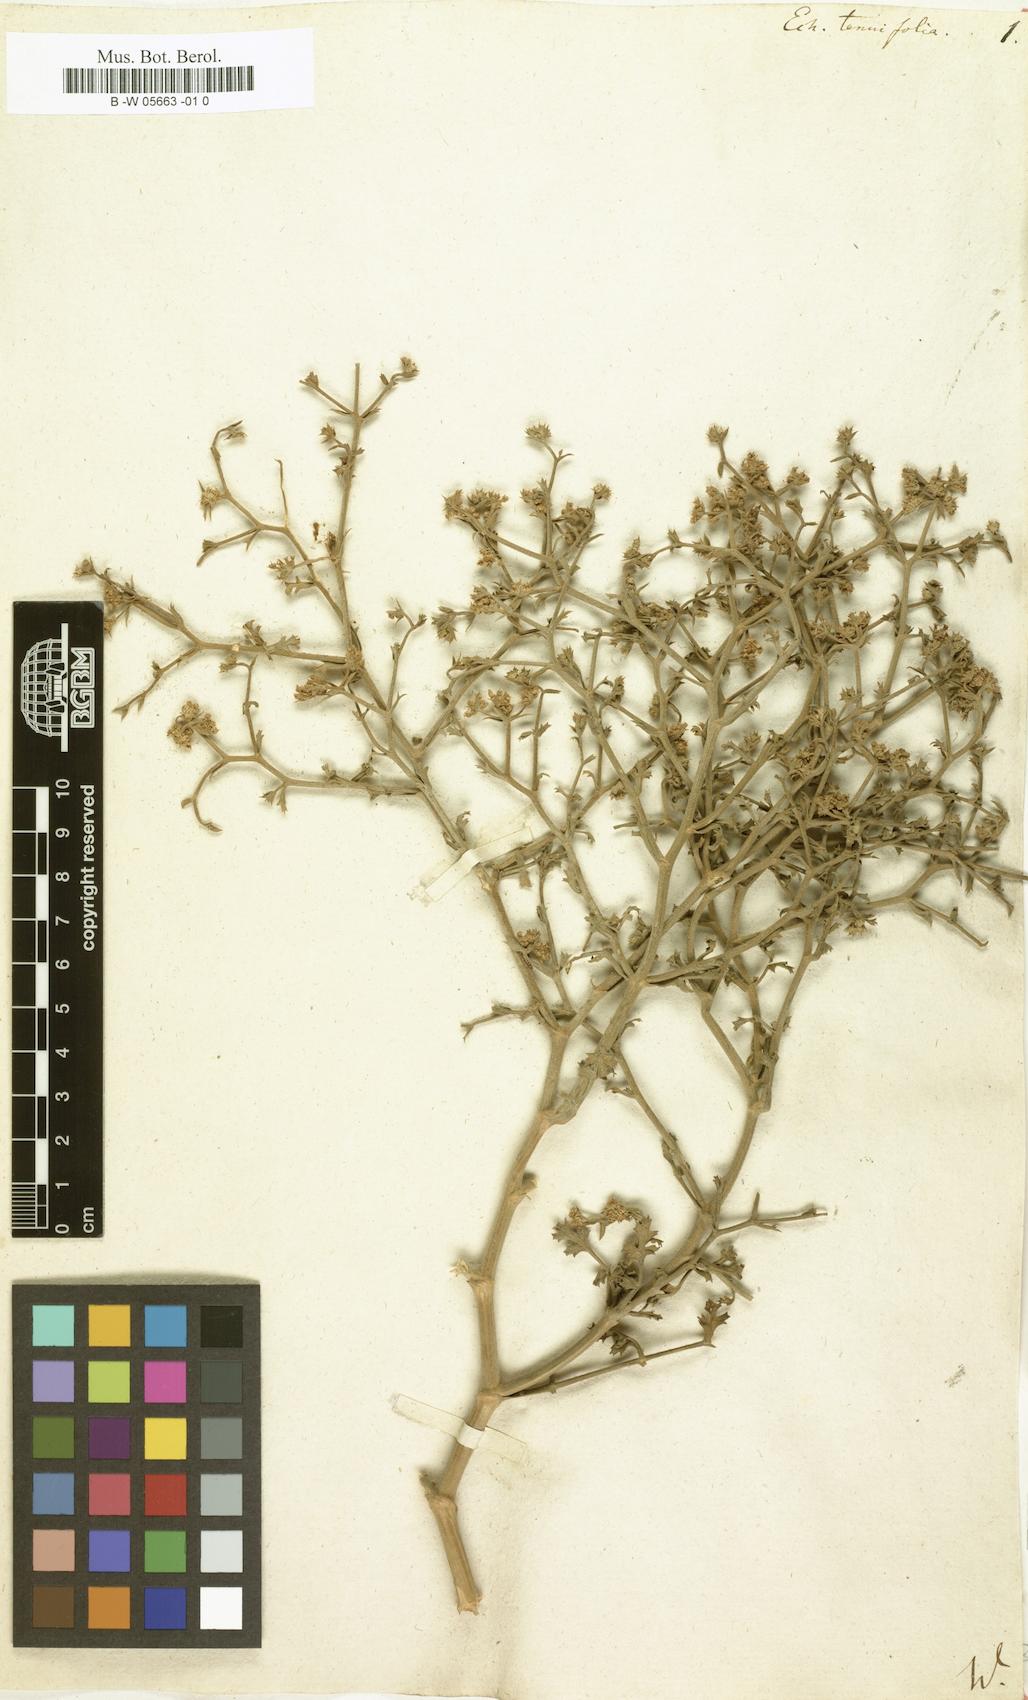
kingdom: Plantae
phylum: Tracheophyta
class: Magnoliopsida
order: Apiales
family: Apiaceae
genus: Echinophora
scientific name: Echinophora tenuifolia
